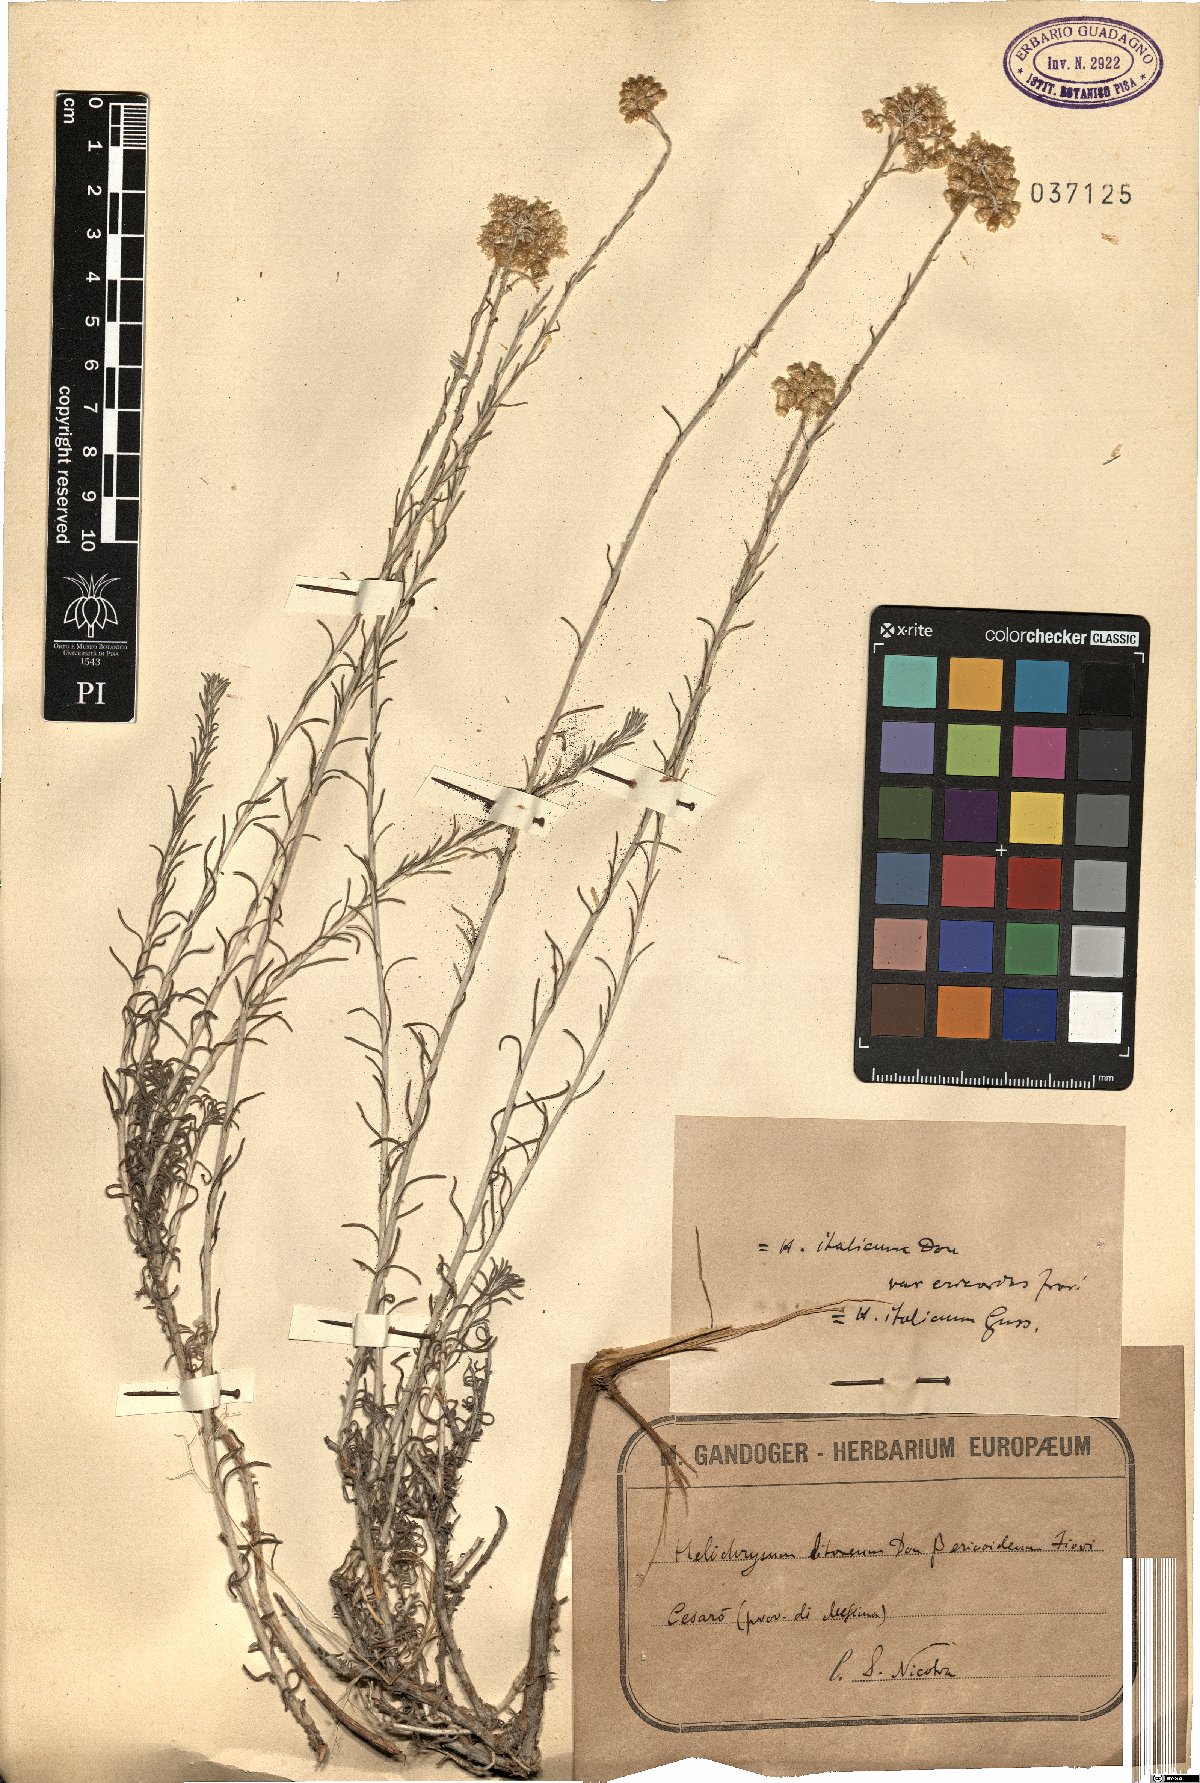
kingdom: Plantae
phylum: Tracheophyta
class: Magnoliopsida
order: Asterales
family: Asteraceae
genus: Helichrysum
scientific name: Helichrysum italicum
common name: Curryplant
